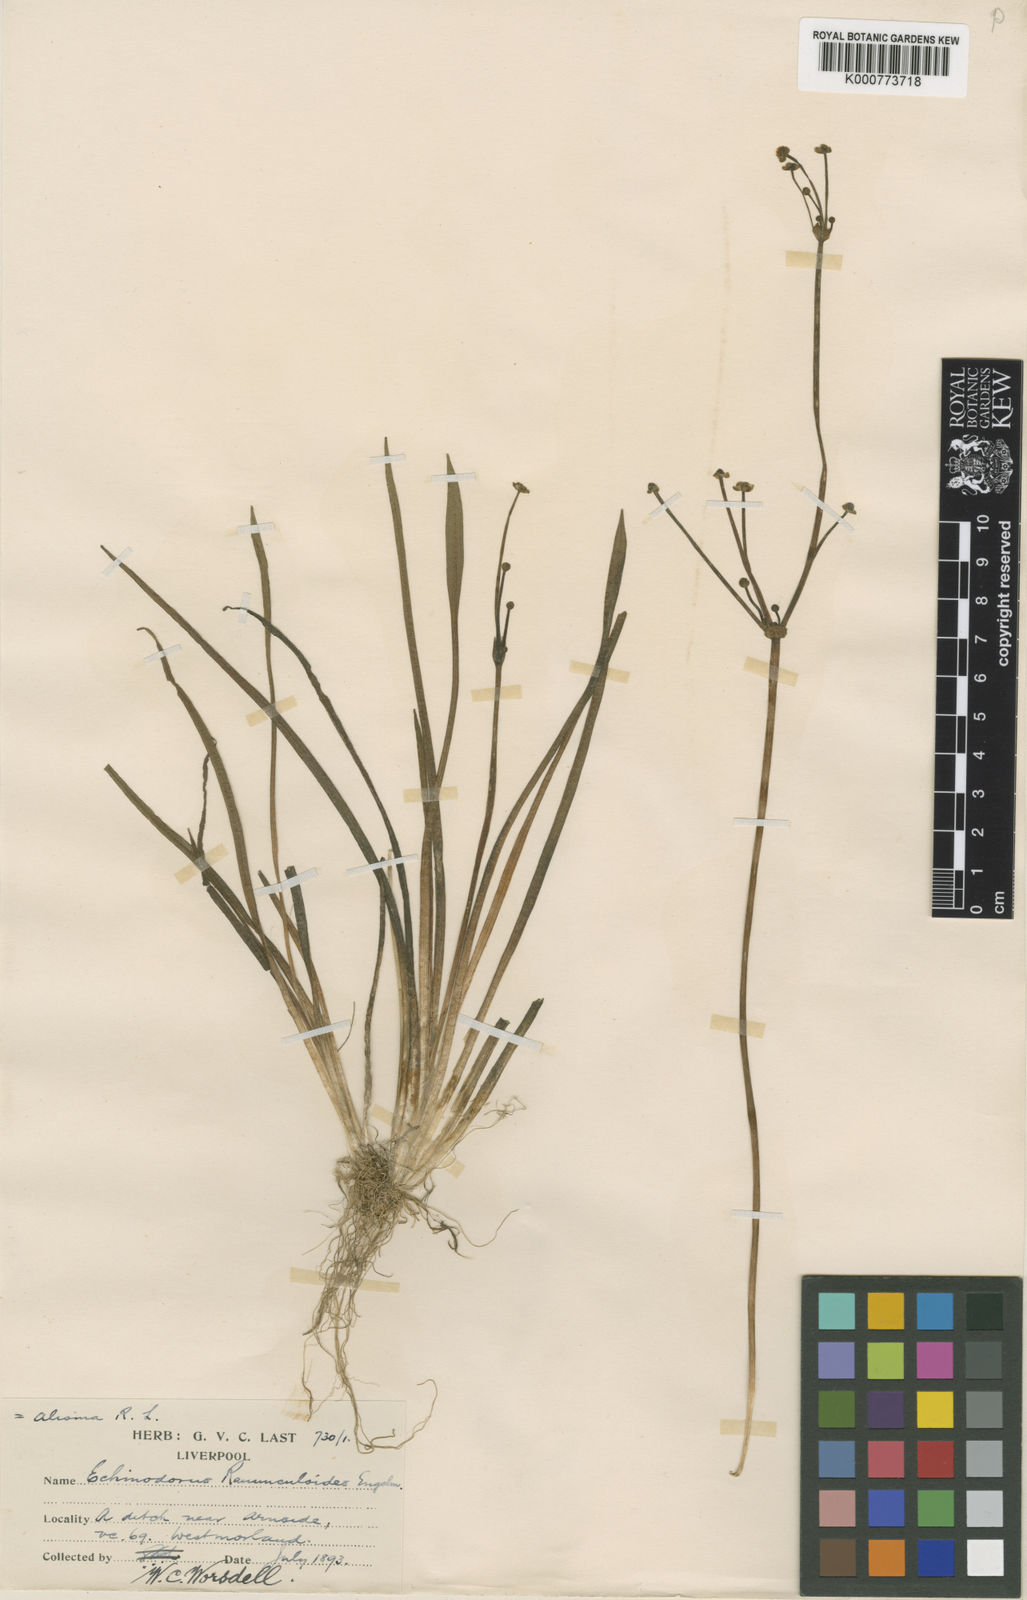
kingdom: Plantae
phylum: Tracheophyta
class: Liliopsida
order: Alismatales
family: Alismataceae
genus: Baldellia
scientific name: Baldellia ranunculoides
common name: Lesser water-plantain
